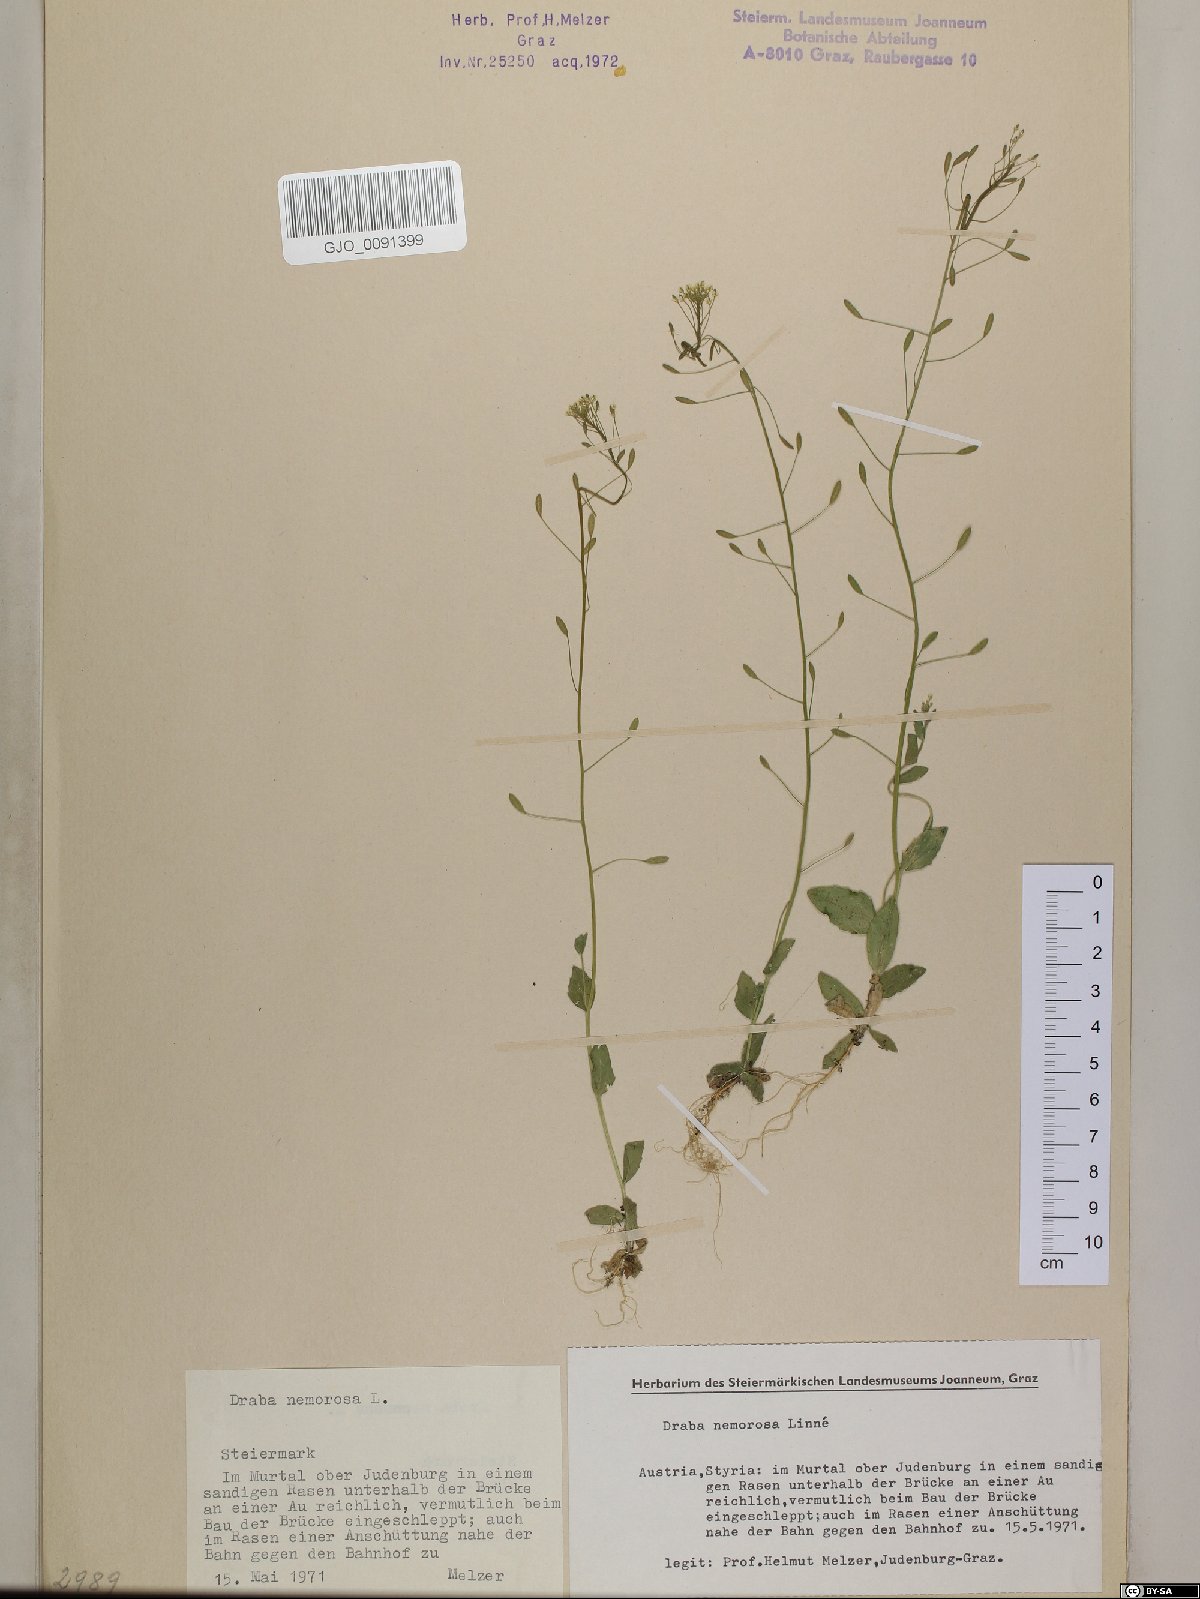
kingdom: Plantae
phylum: Tracheophyta
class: Magnoliopsida
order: Brassicales
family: Brassicaceae
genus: Draba
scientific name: Draba nemorosa
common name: Wood whitlow-grass
